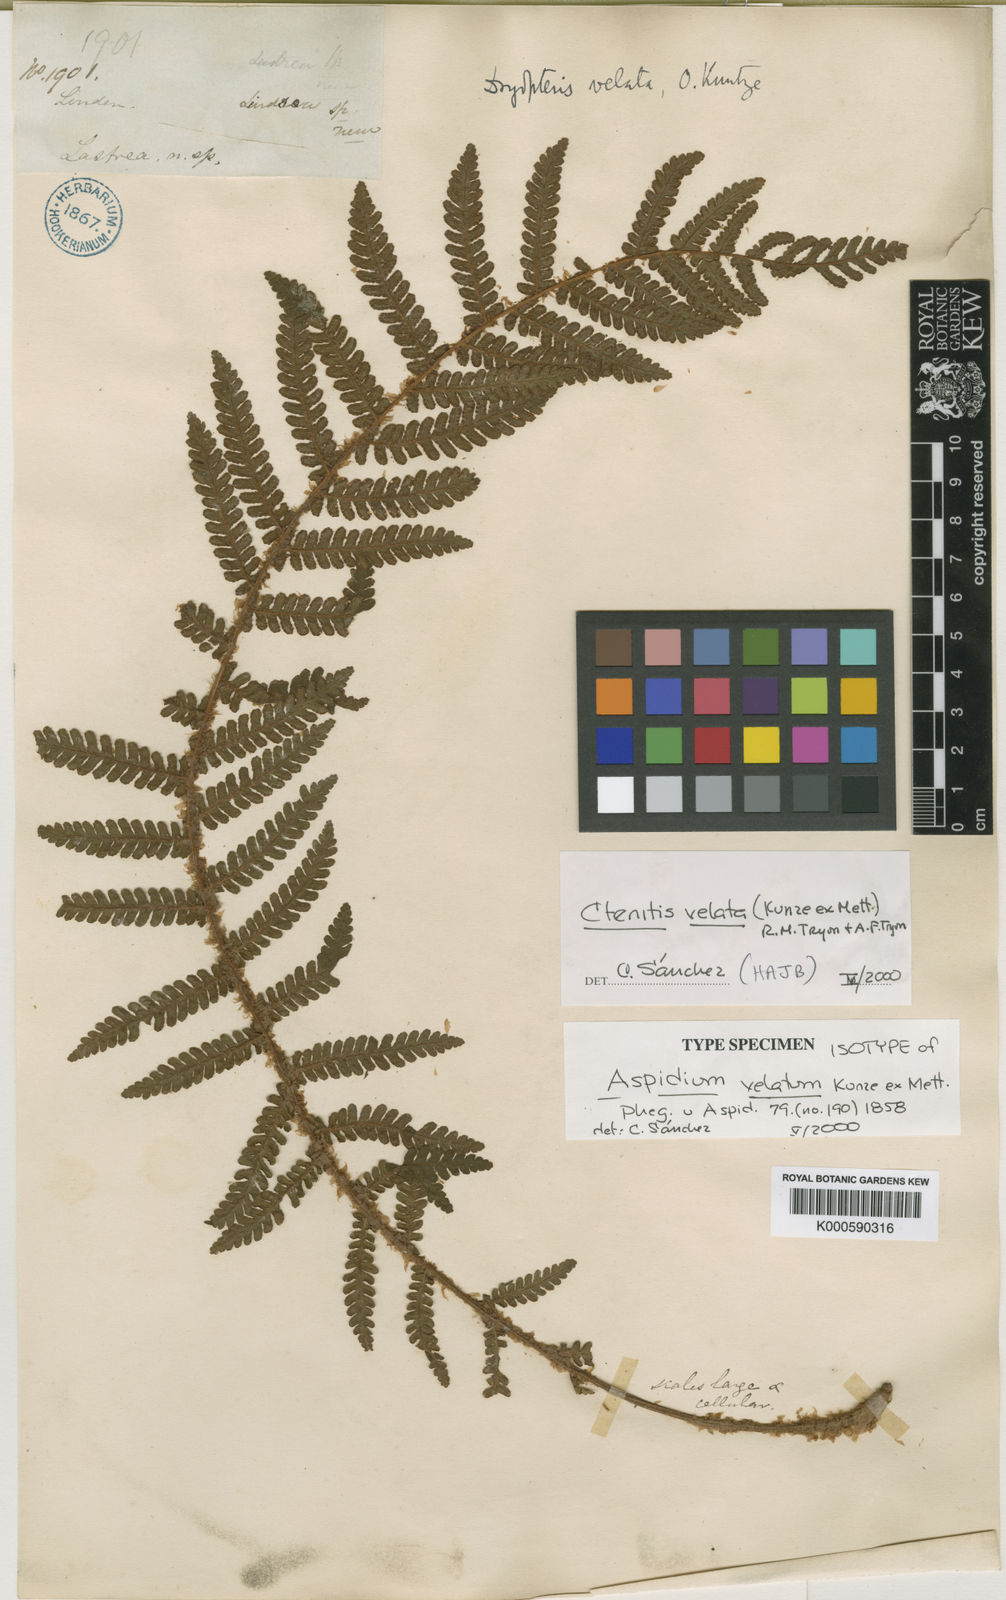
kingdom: Plantae
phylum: Tracheophyta
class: Polypodiopsida
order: Polypodiales
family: Dryopteridaceae
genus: Ctenitis
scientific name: Ctenitis velata
